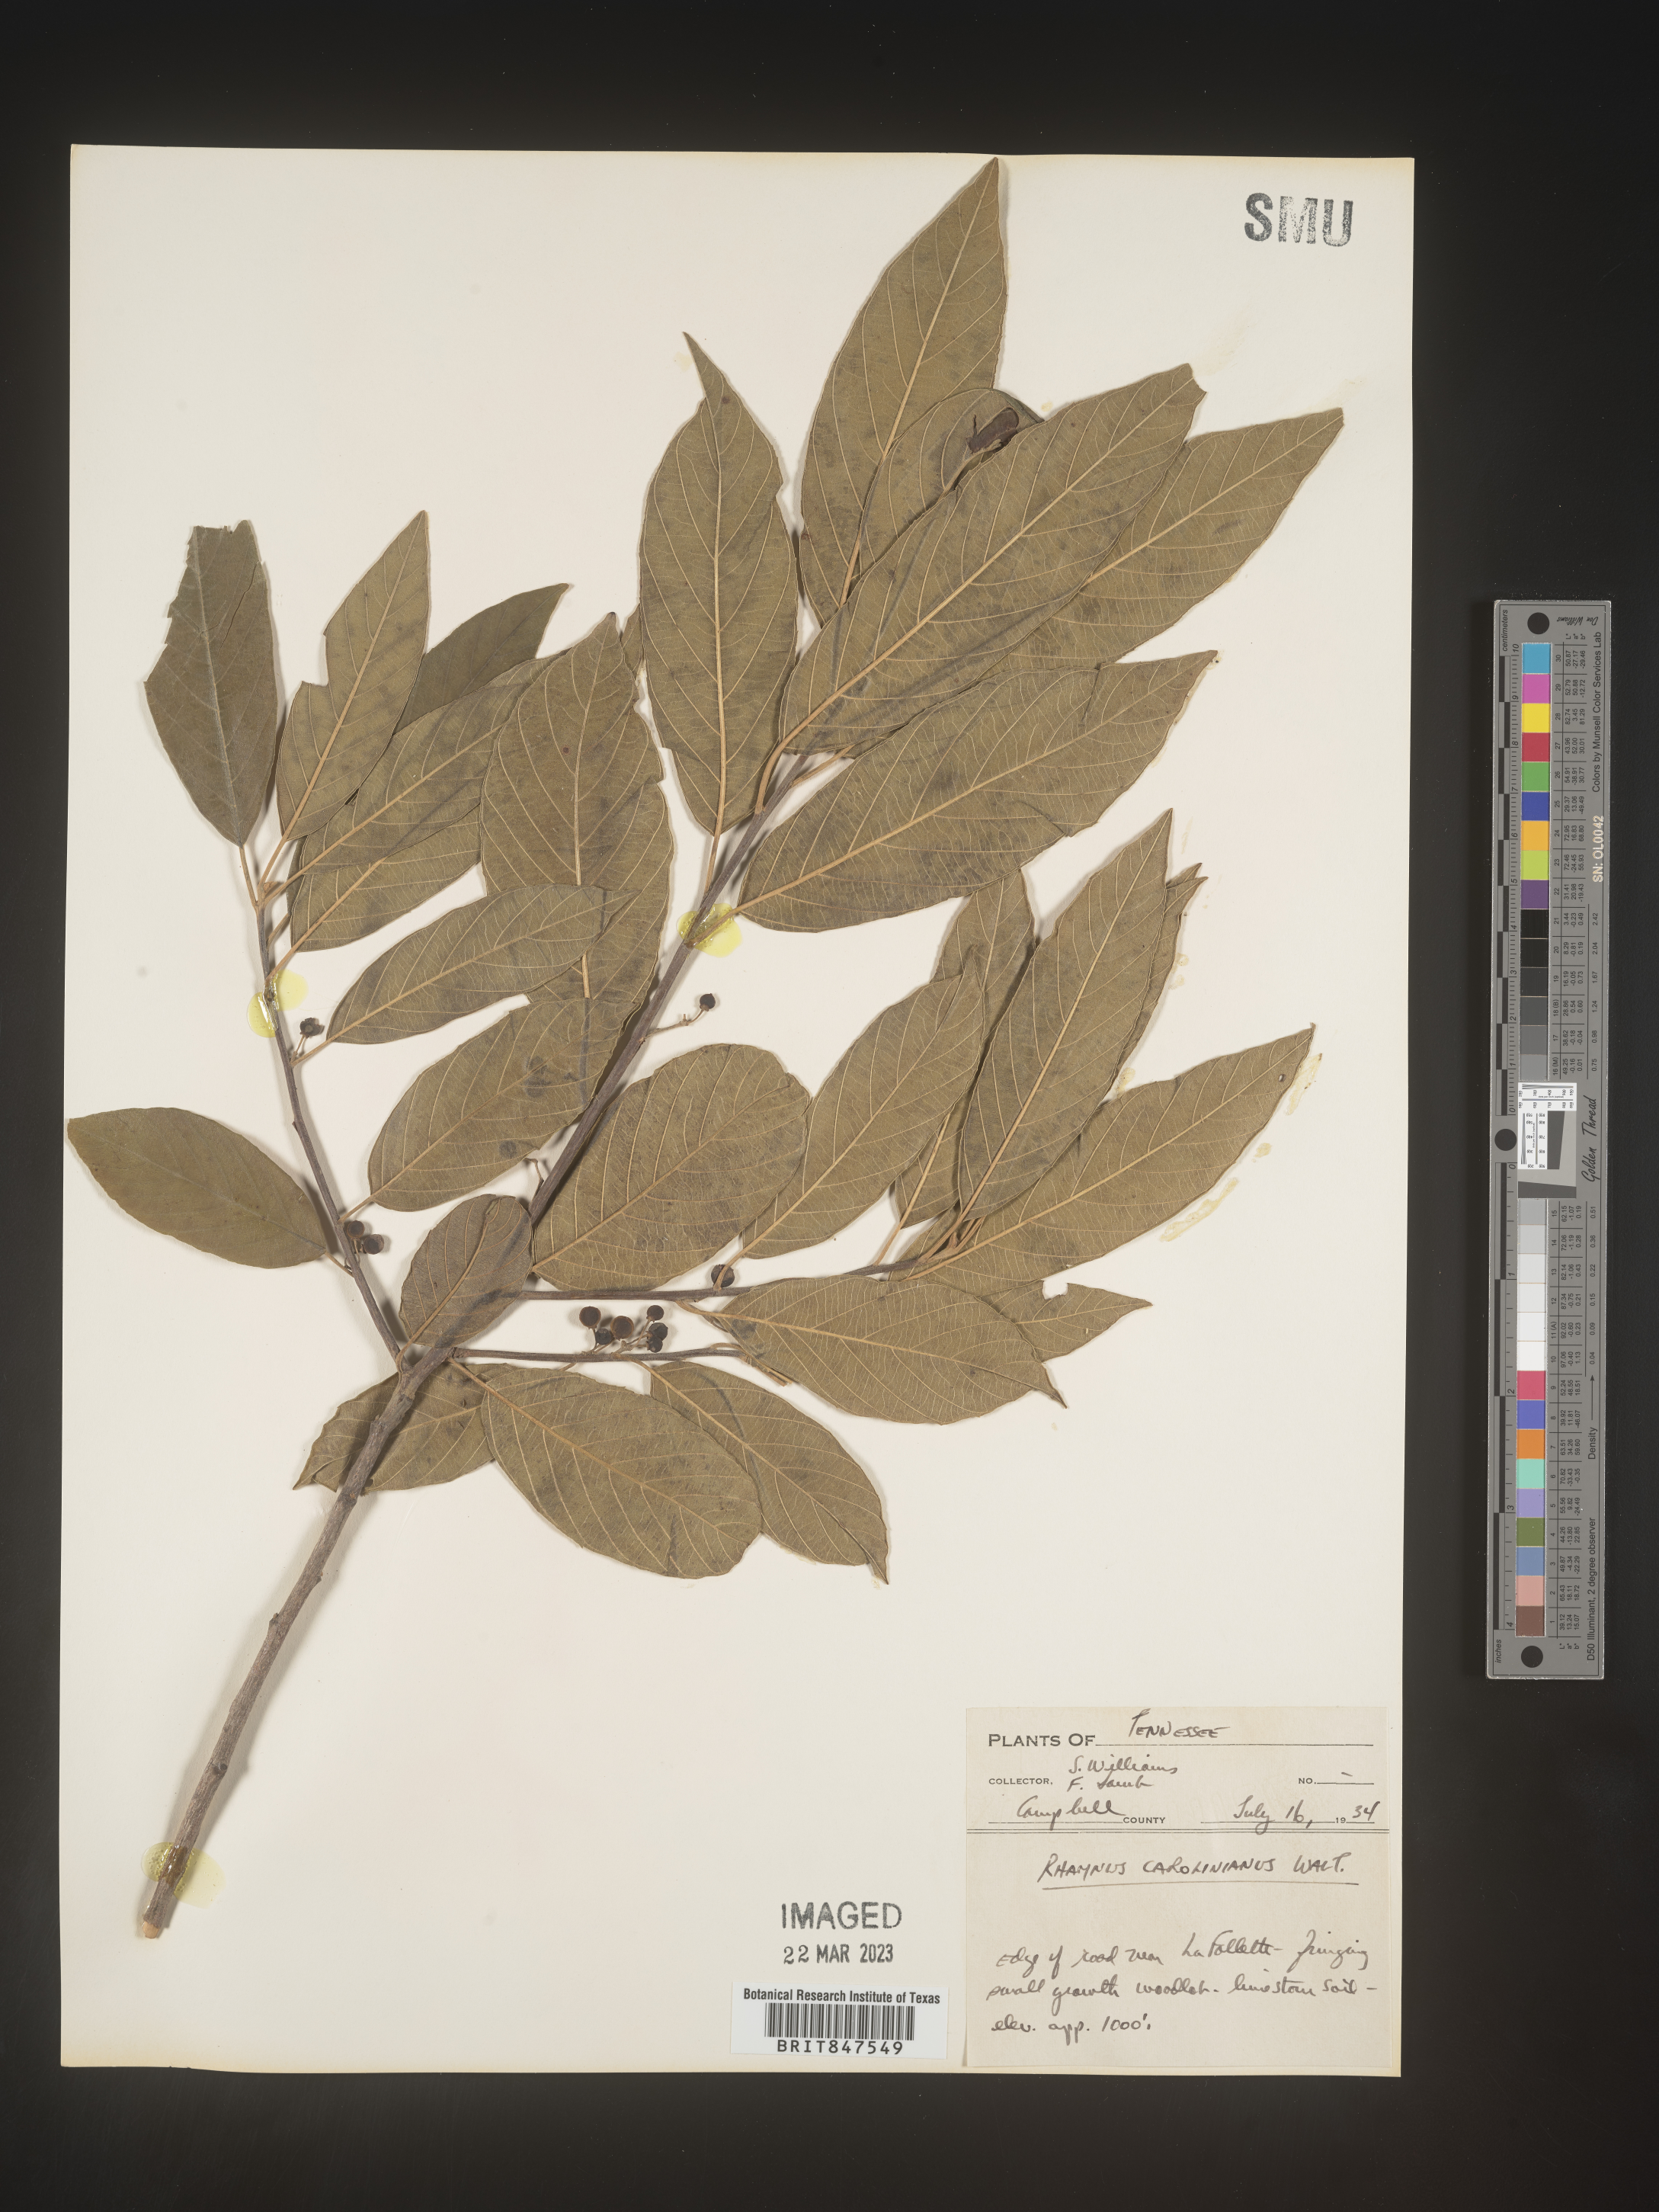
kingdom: Plantae
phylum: Tracheophyta
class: Magnoliopsida
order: Rosales
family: Rhamnaceae
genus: Frangula
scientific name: Frangula caroliniana
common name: Carolina buckthorn
